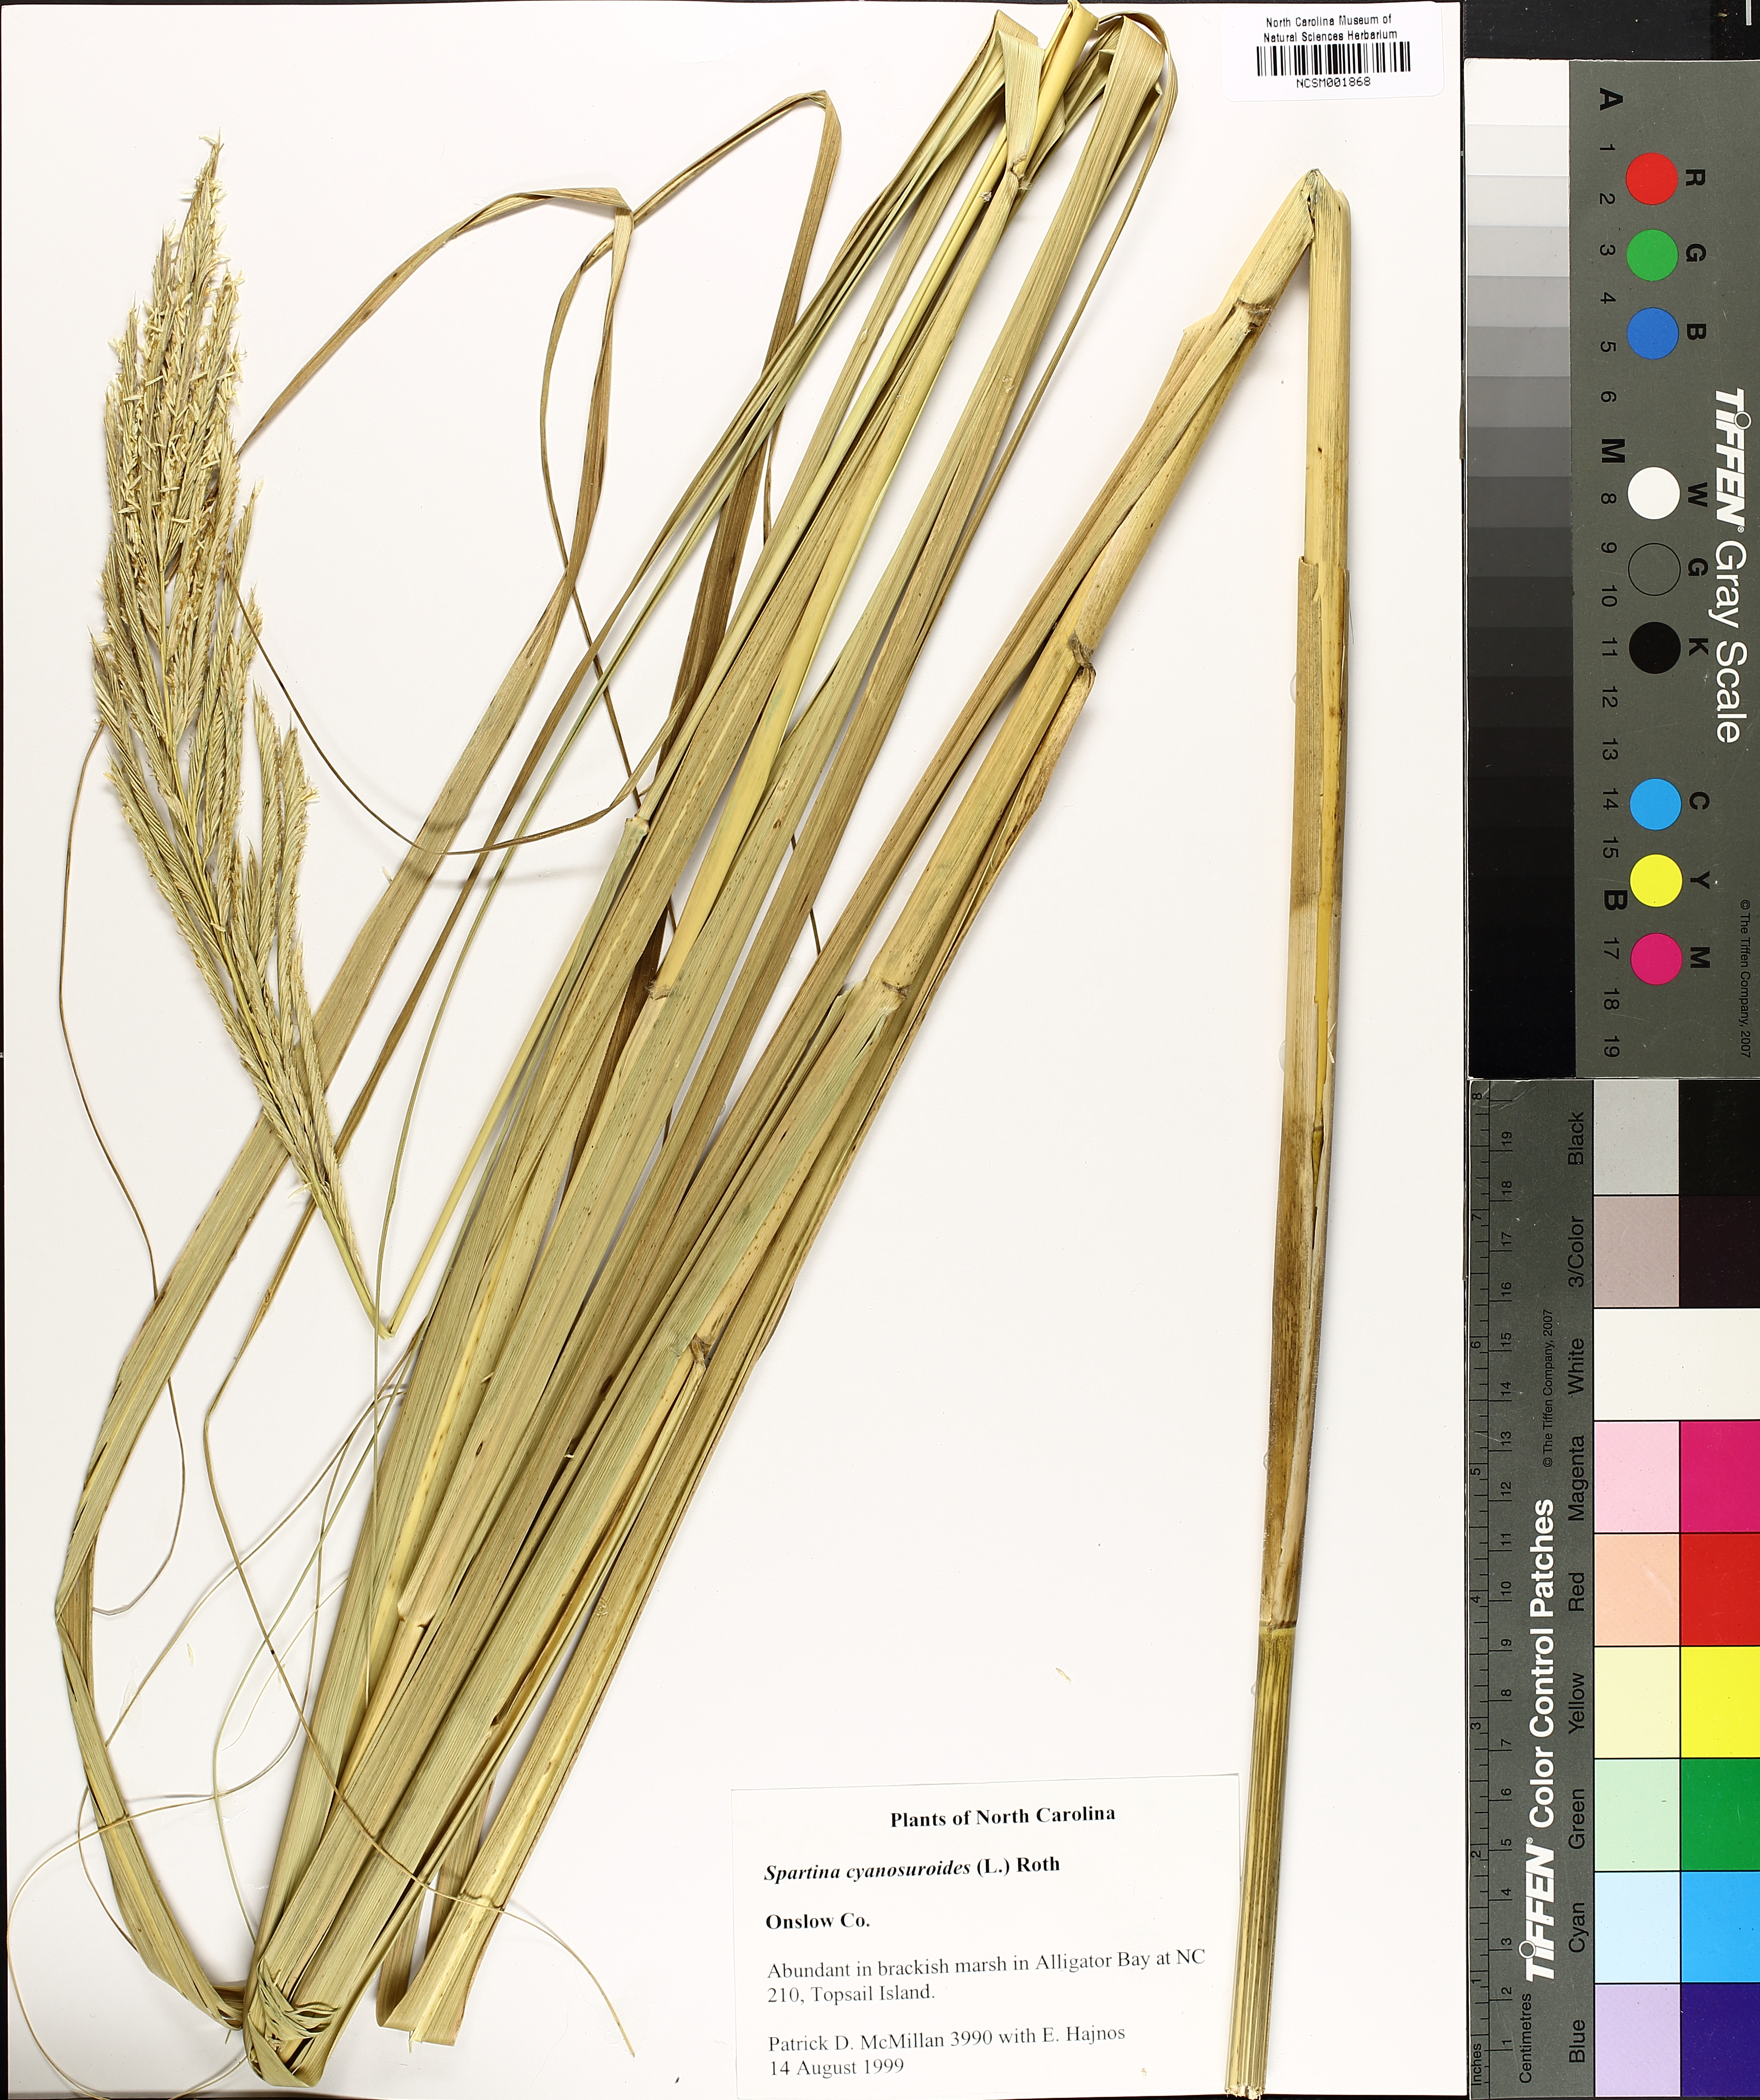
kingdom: Plantae
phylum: Tracheophyta
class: Liliopsida
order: Poales
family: Poaceae
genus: Sporobolus
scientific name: Sporobolus cynosuroides
